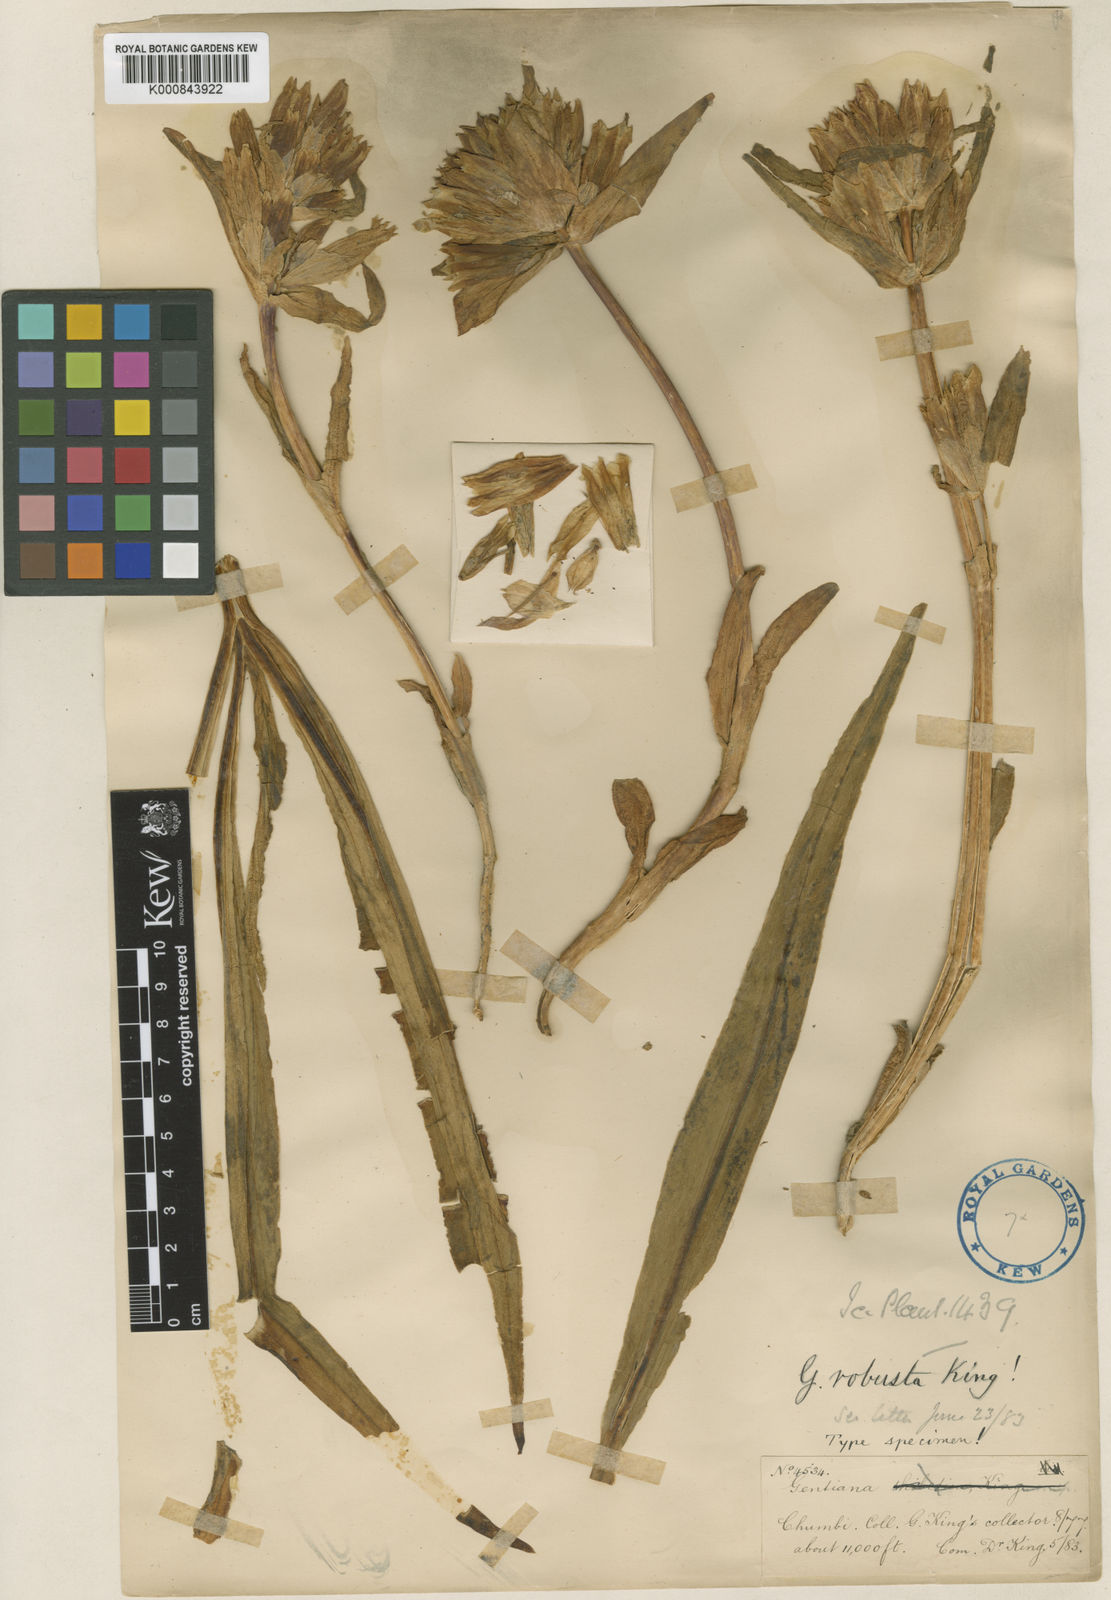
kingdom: Plantae
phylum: Tracheophyta
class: Magnoliopsida
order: Gentianales
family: Gentianaceae
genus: Gentiana
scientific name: Gentiana robusta
